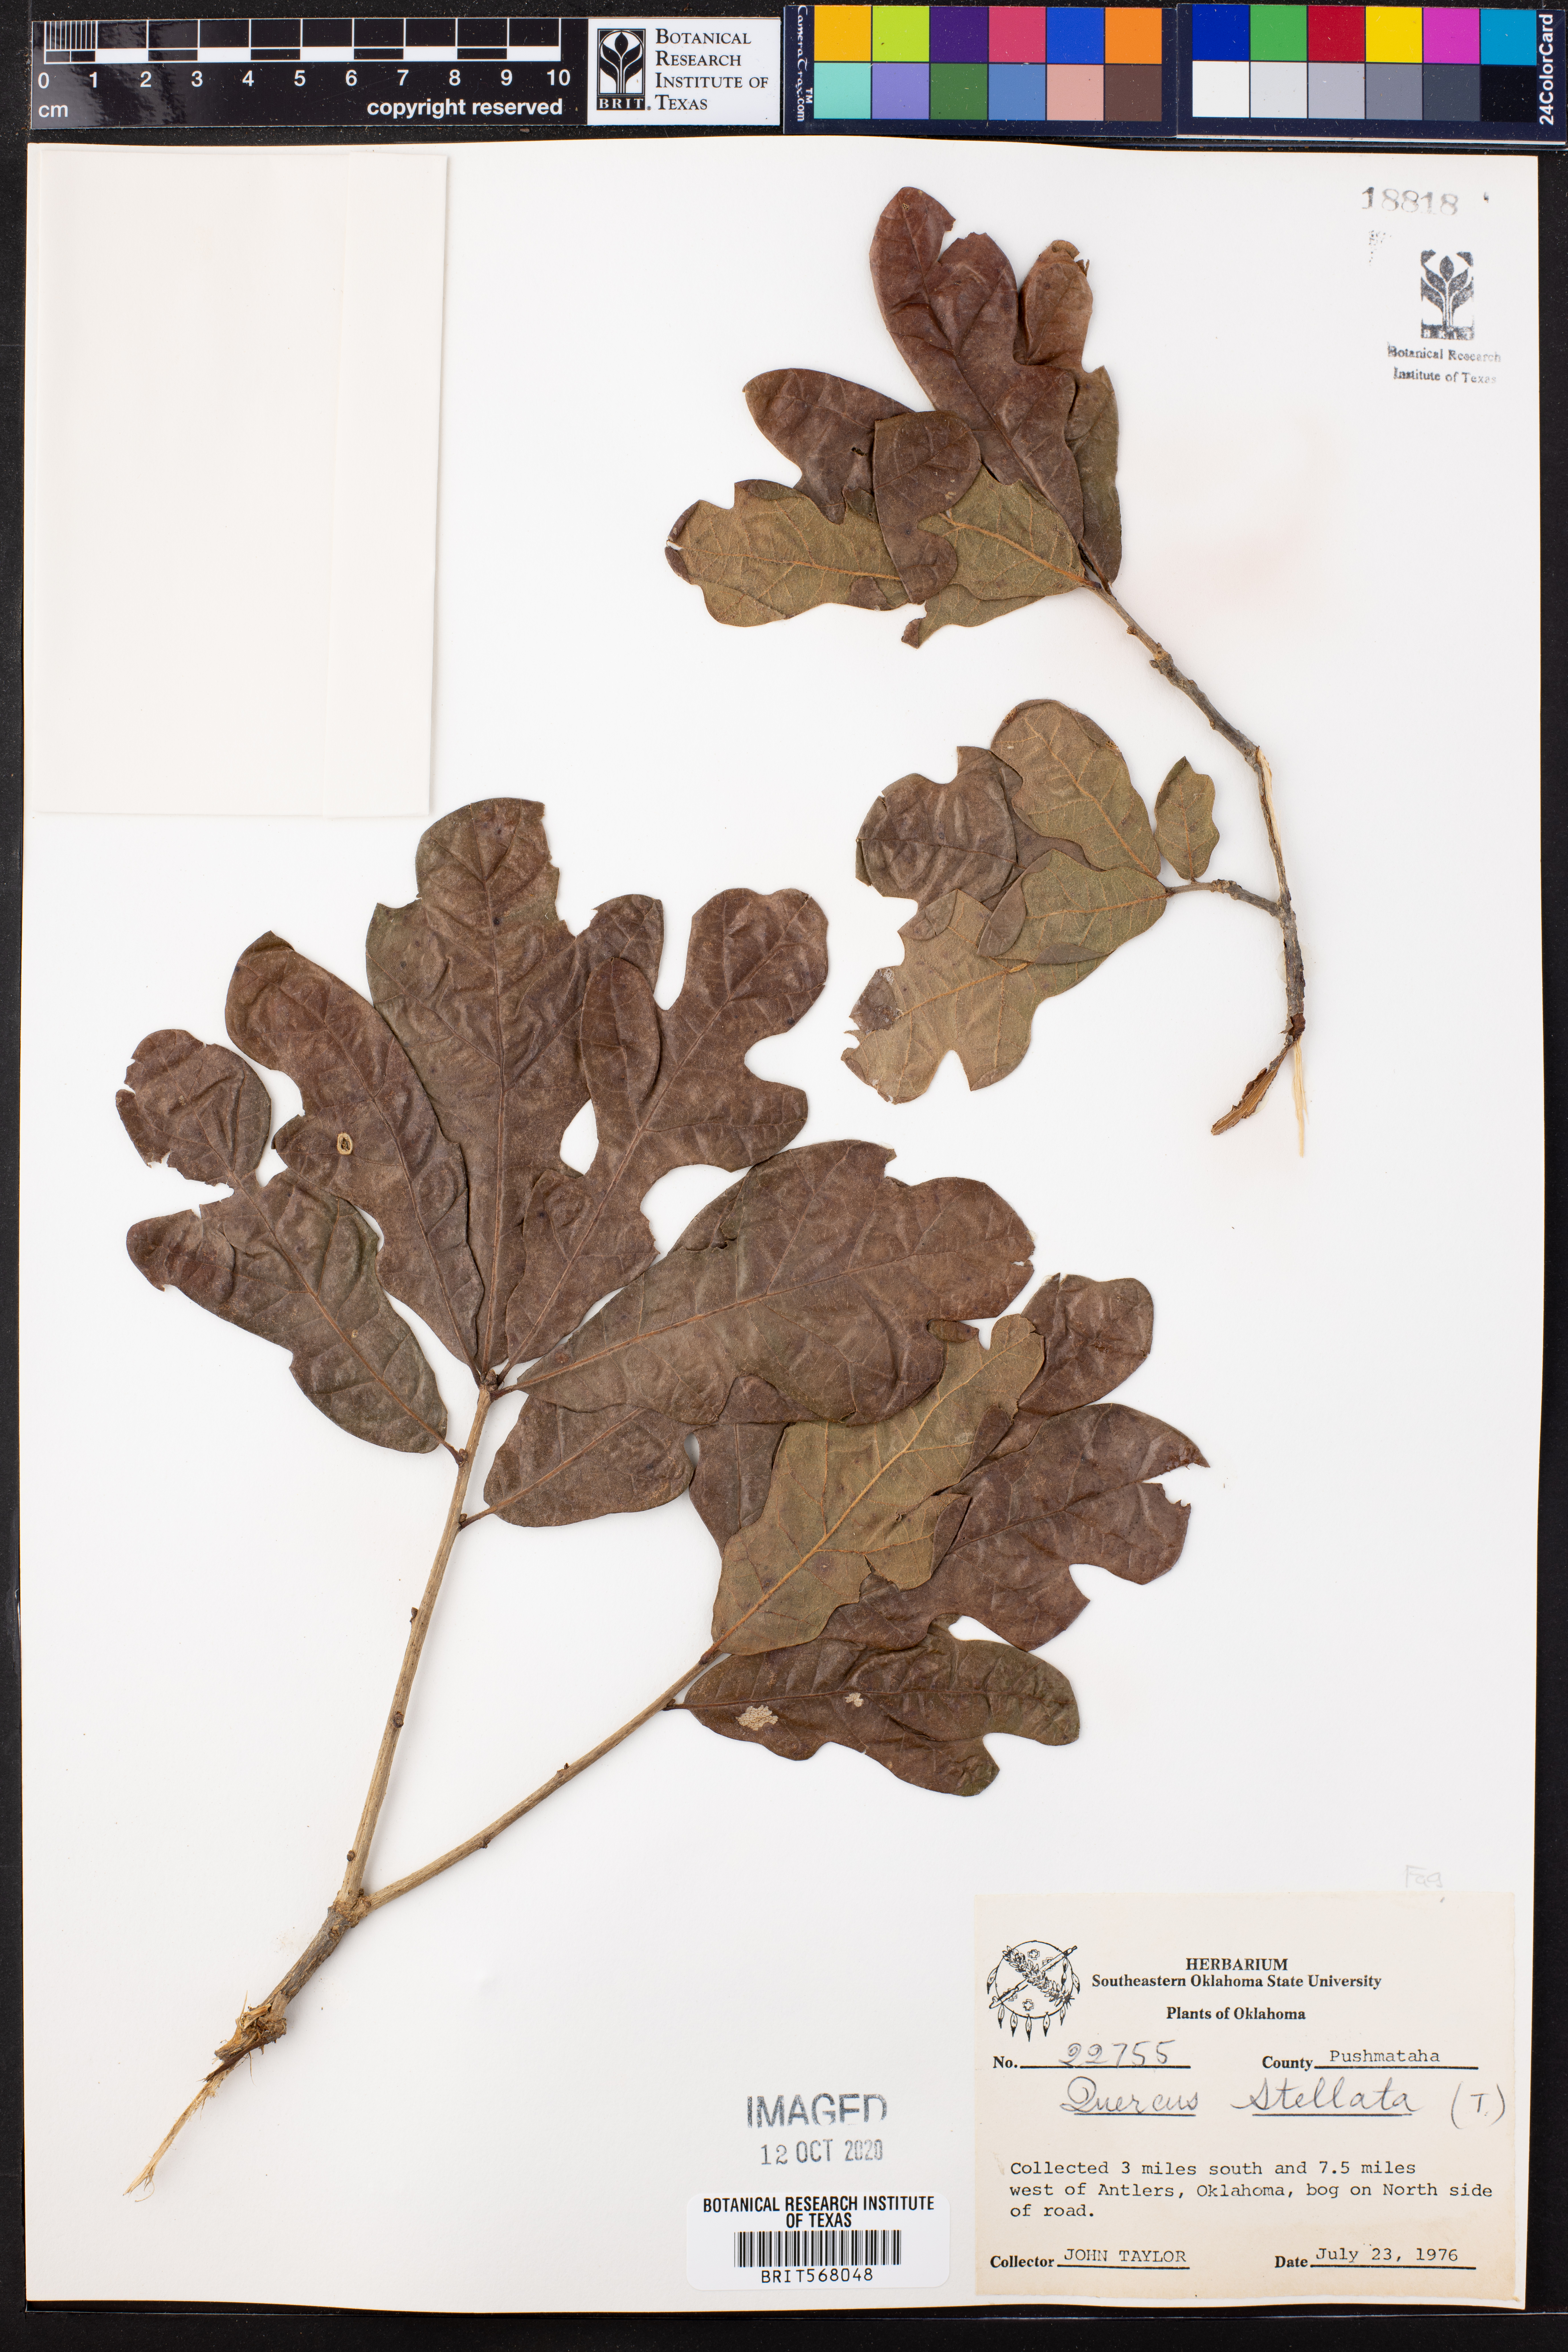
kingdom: Plantae
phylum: Tracheophyta
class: Magnoliopsida
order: Fagales
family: Fagaceae
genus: Quercus
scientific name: Quercus stellata
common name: Post oak
